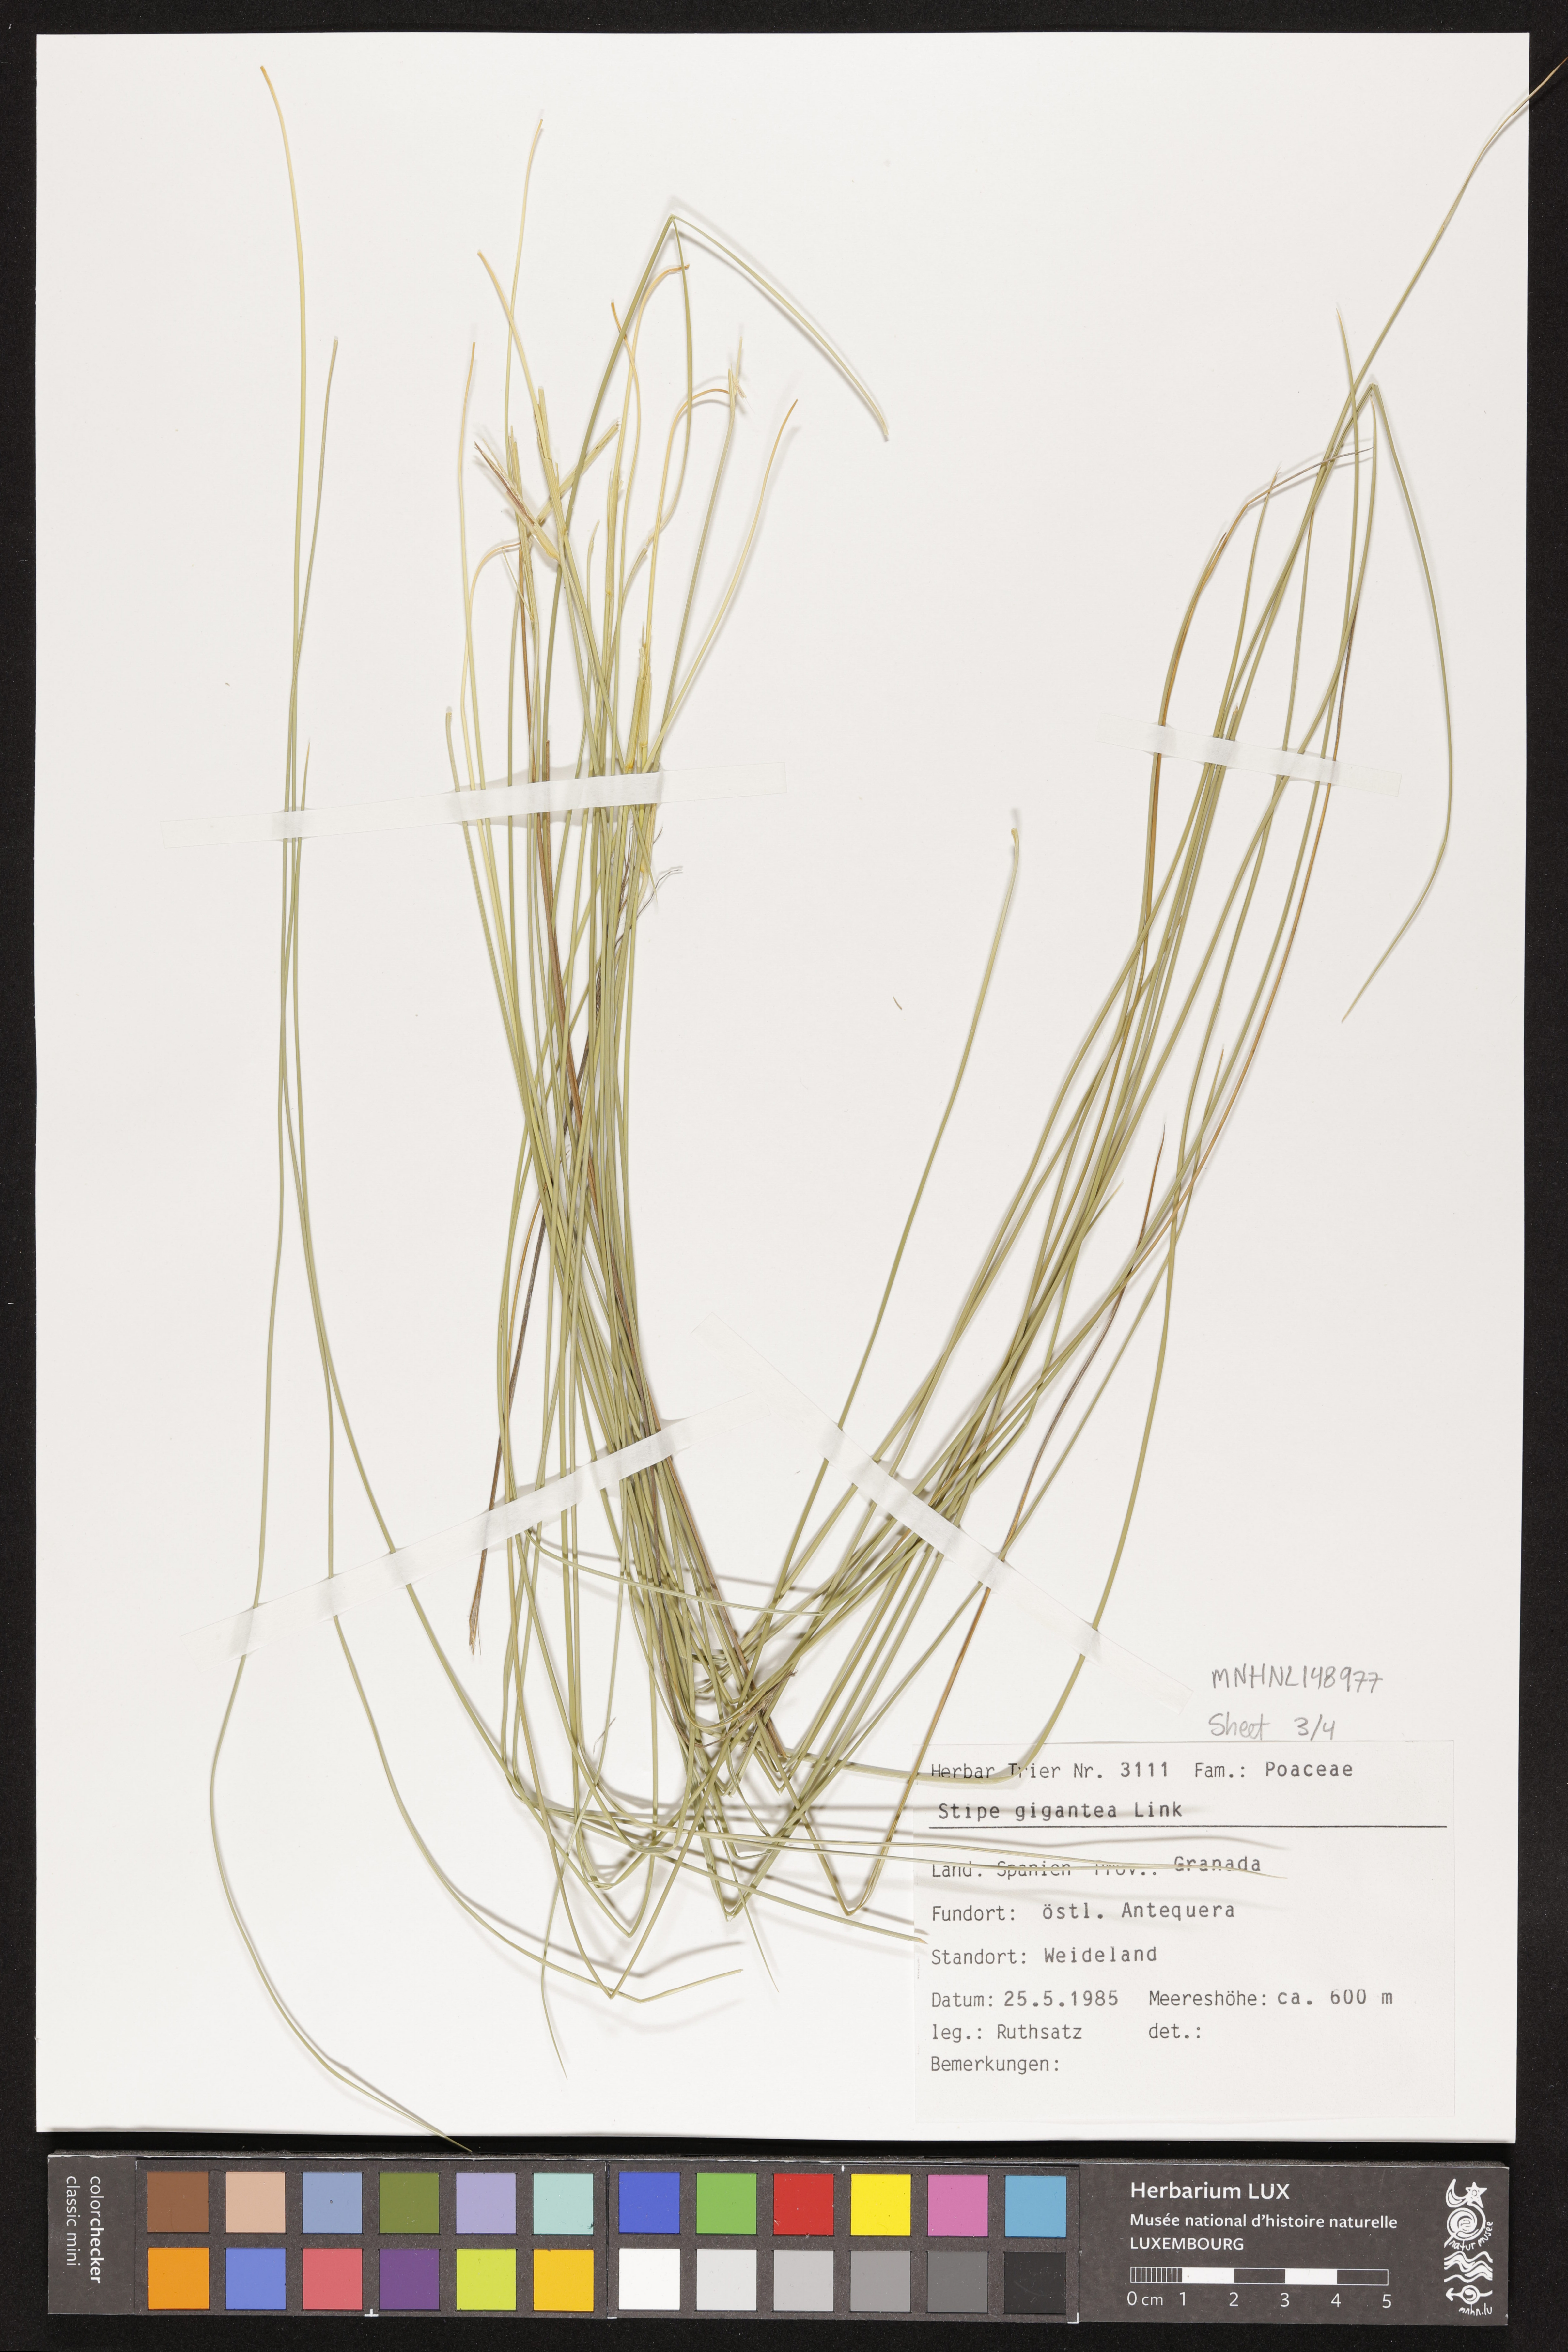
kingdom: Plantae
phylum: Tracheophyta
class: Liliopsida
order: Poales
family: Poaceae
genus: Celtica
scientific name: Celtica gigantea
